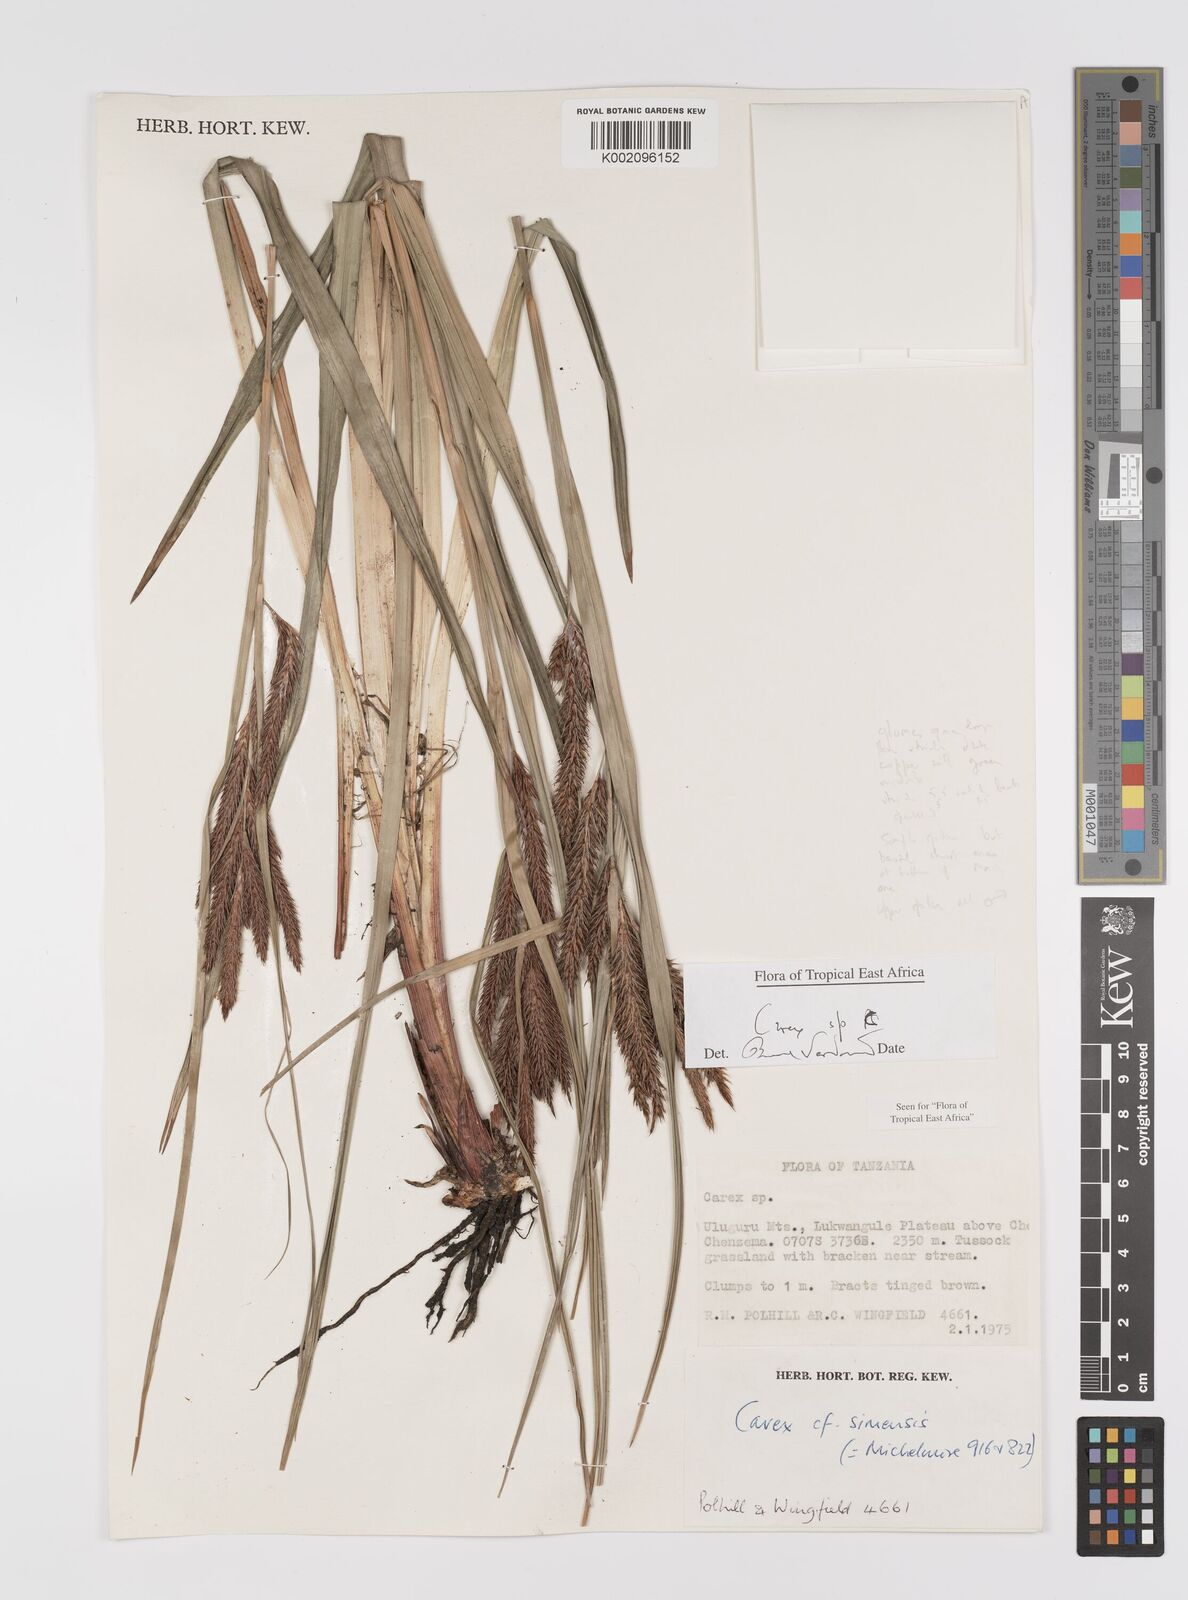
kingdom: Plantae
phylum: Tracheophyta
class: Liliopsida
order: Poales
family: Cyperaceae
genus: Carex
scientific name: Carex
